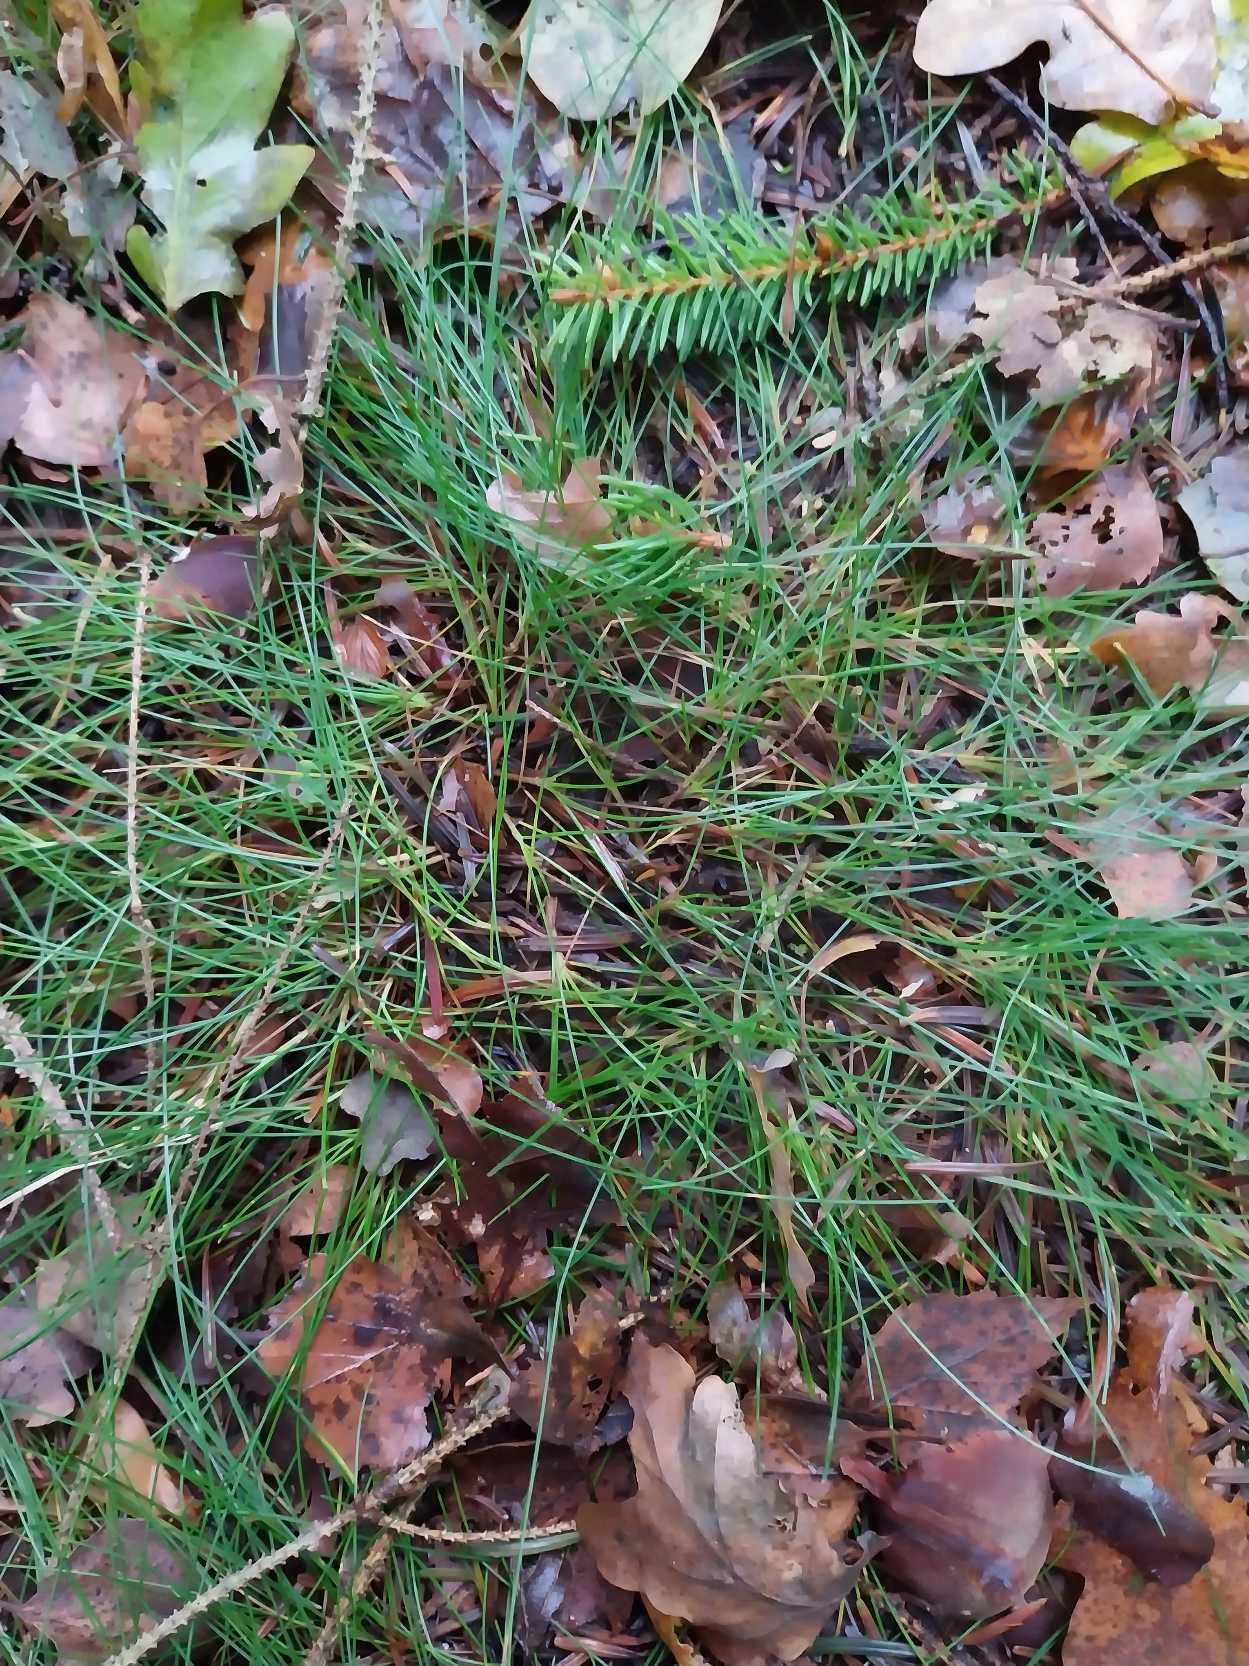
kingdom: Plantae
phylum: Tracheophyta
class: Liliopsida
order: Poales
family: Poaceae
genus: Avenella
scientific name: Avenella flexuosa
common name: Bølget bunke
